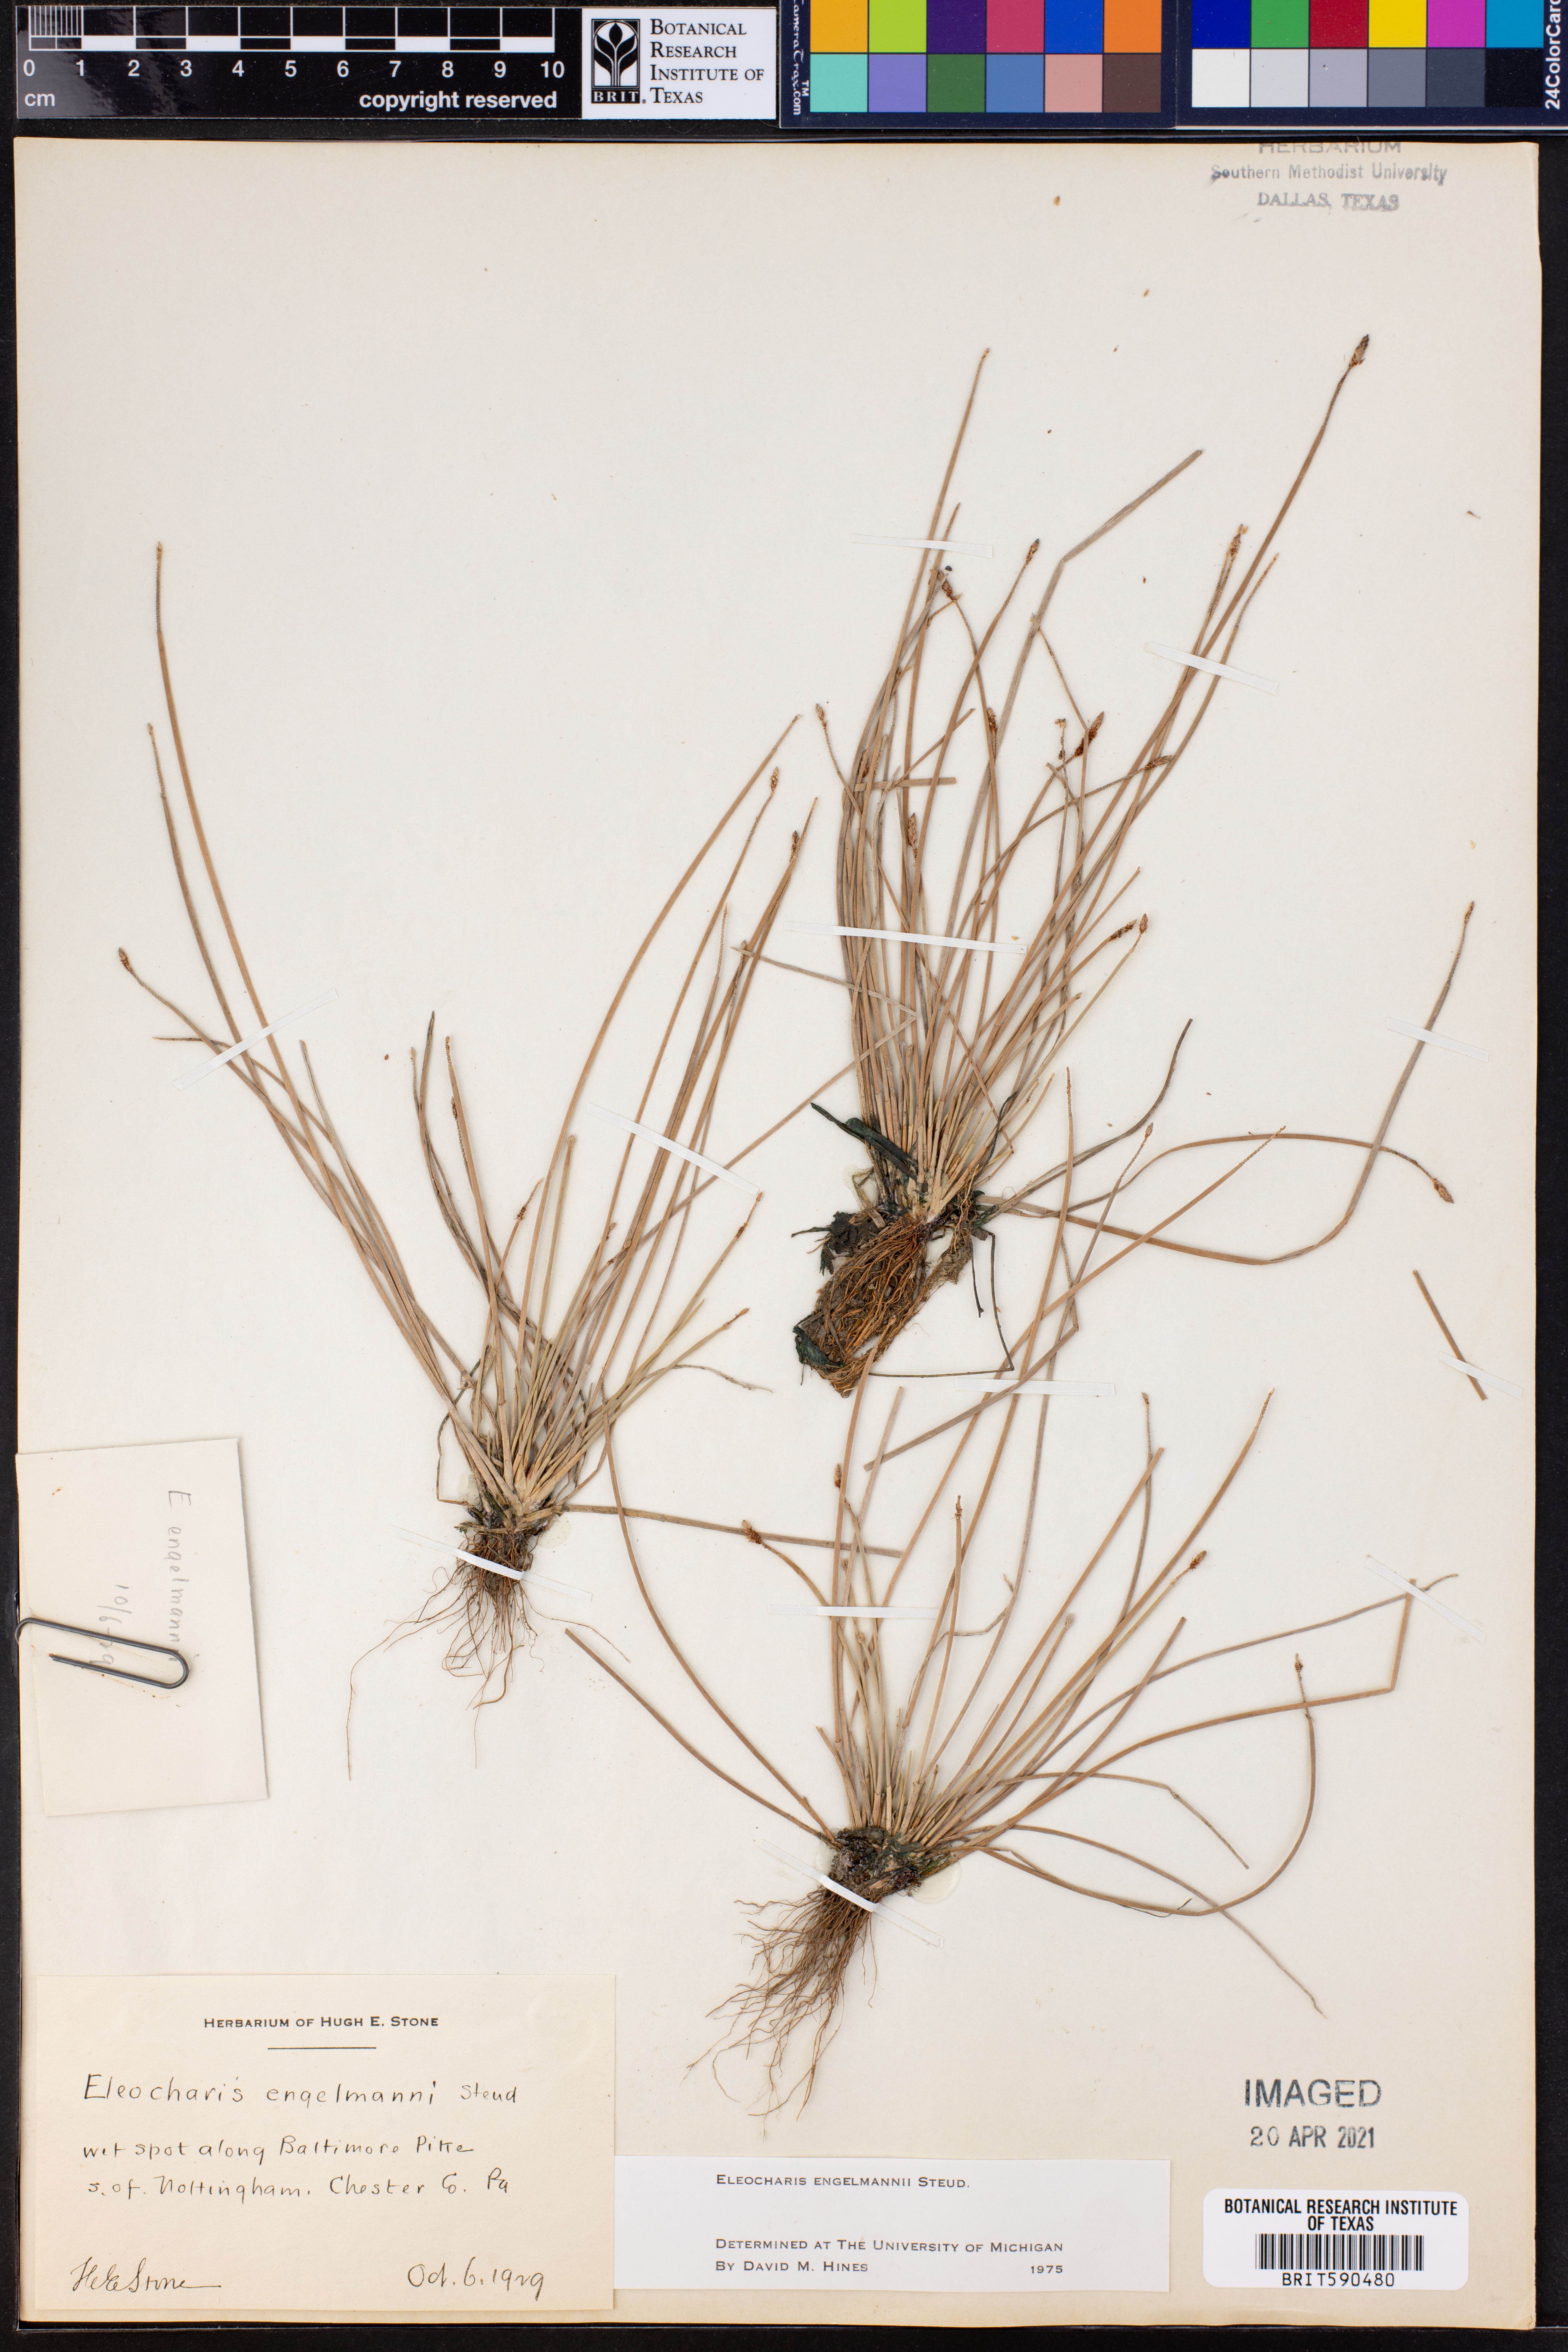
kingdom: Plantae
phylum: Tracheophyta
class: Liliopsida
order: Poales
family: Cyperaceae
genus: Eleocharis
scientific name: Eleocharis engelmannii
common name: Engelmann's spikerush
